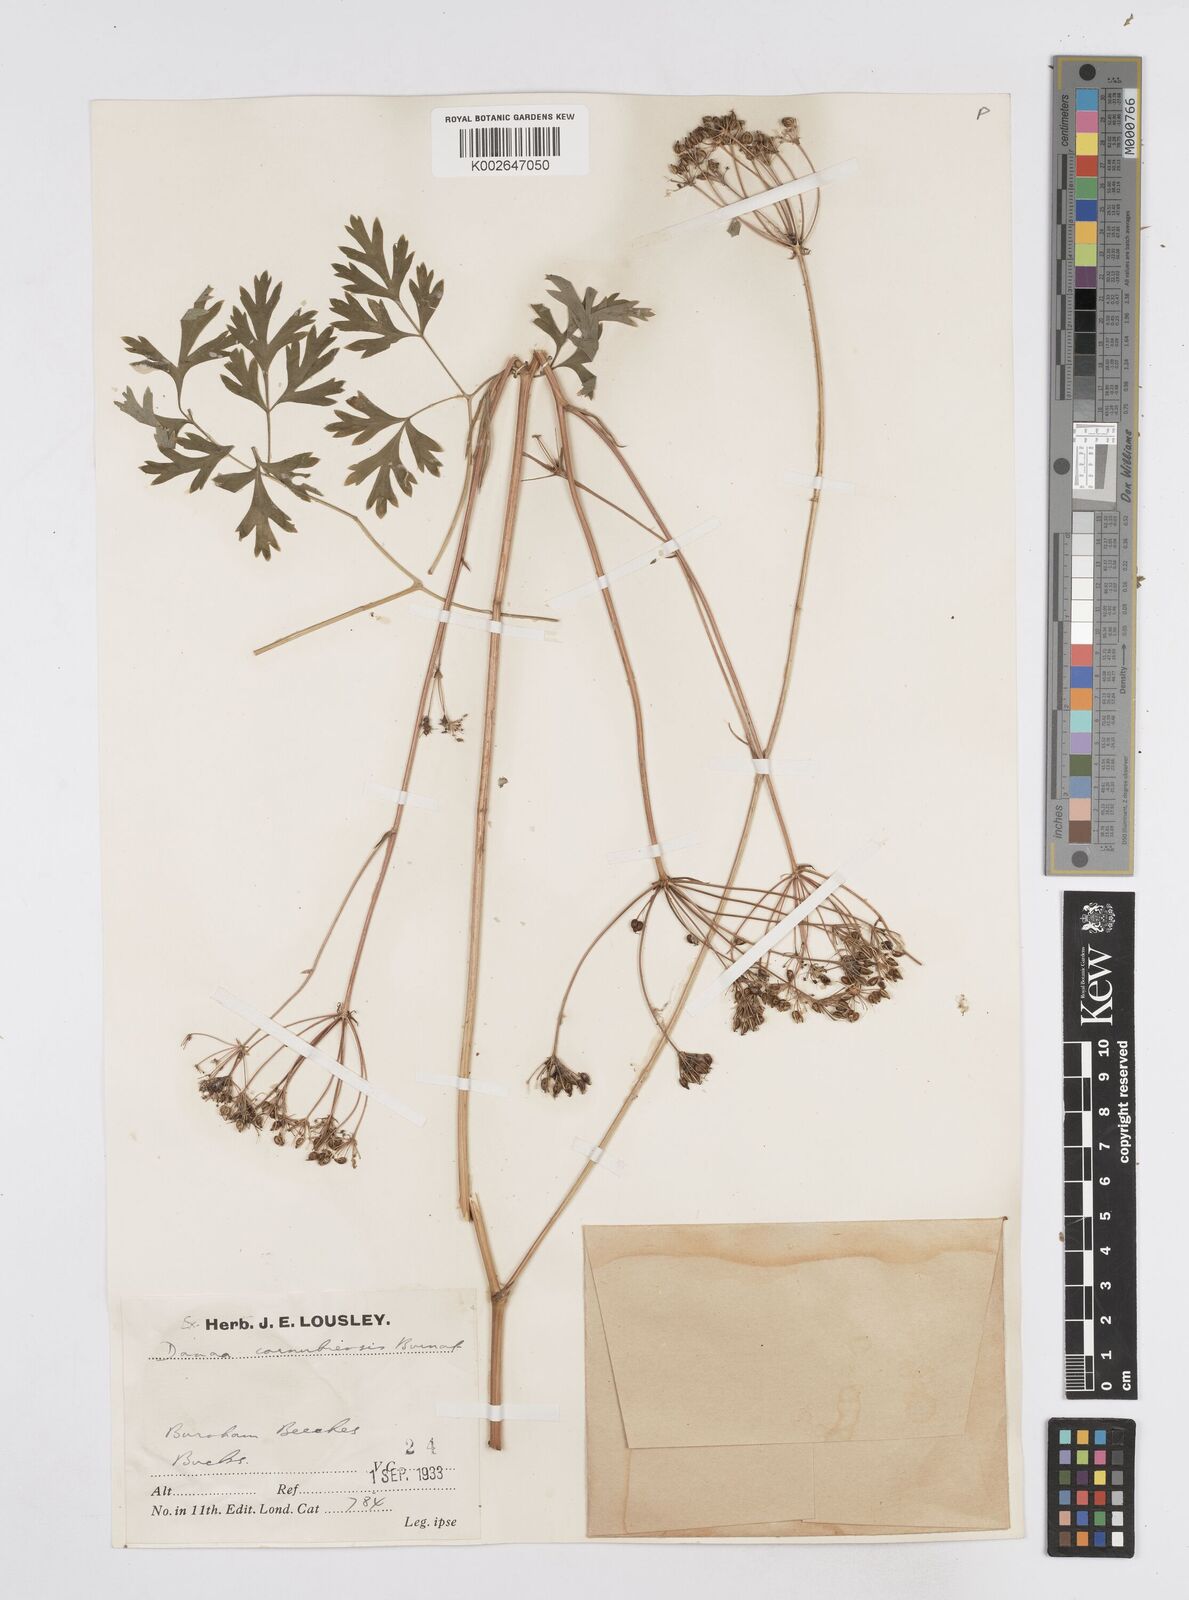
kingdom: Plantae
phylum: Tracheophyta
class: Magnoliopsida
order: Apiales
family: Apiaceae
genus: Physospermum
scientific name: Physospermum cornubiense
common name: Bladderseed
